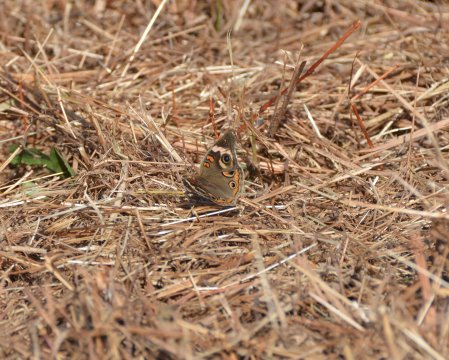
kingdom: Animalia
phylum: Arthropoda
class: Insecta
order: Lepidoptera
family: Nymphalidae
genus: Junonia
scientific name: Junonia coenia
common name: Common Buckeye
